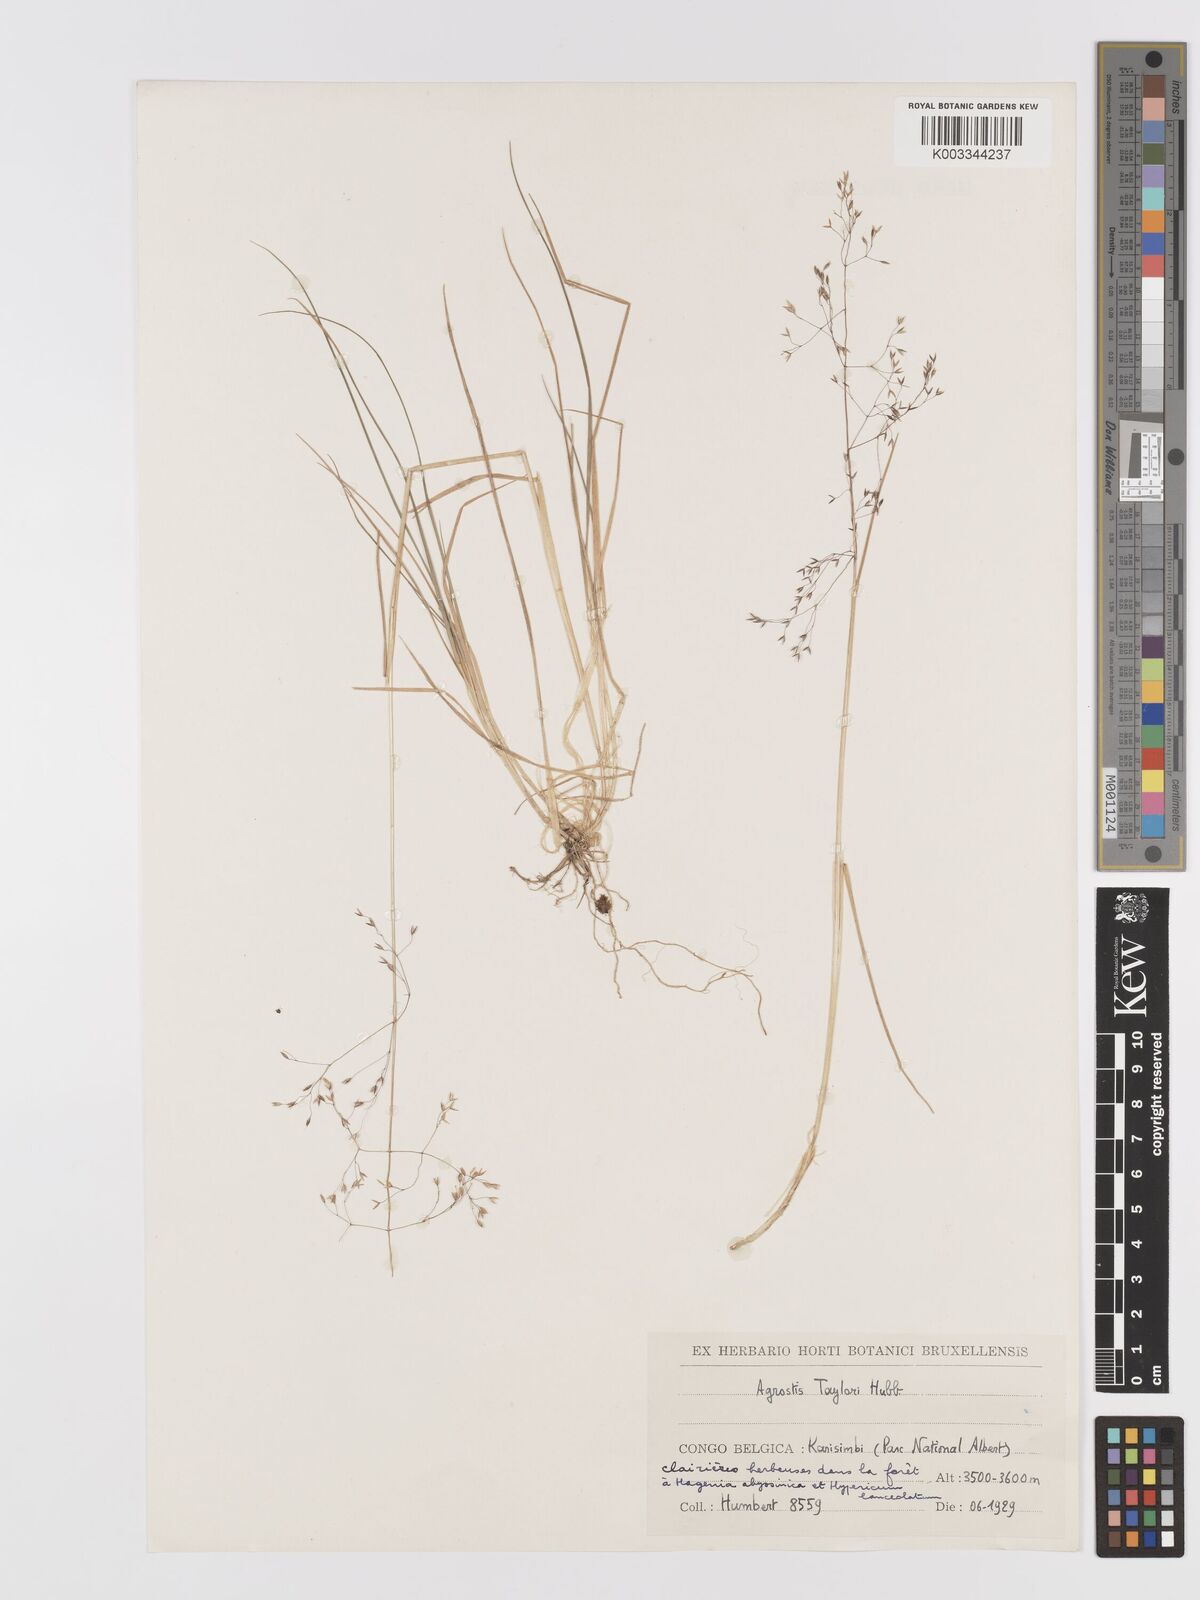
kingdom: Plantae
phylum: Tracheophyta
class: Liliopsida
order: Poales
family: Poaceae
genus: Agrostis
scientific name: Agrostis taylorii
